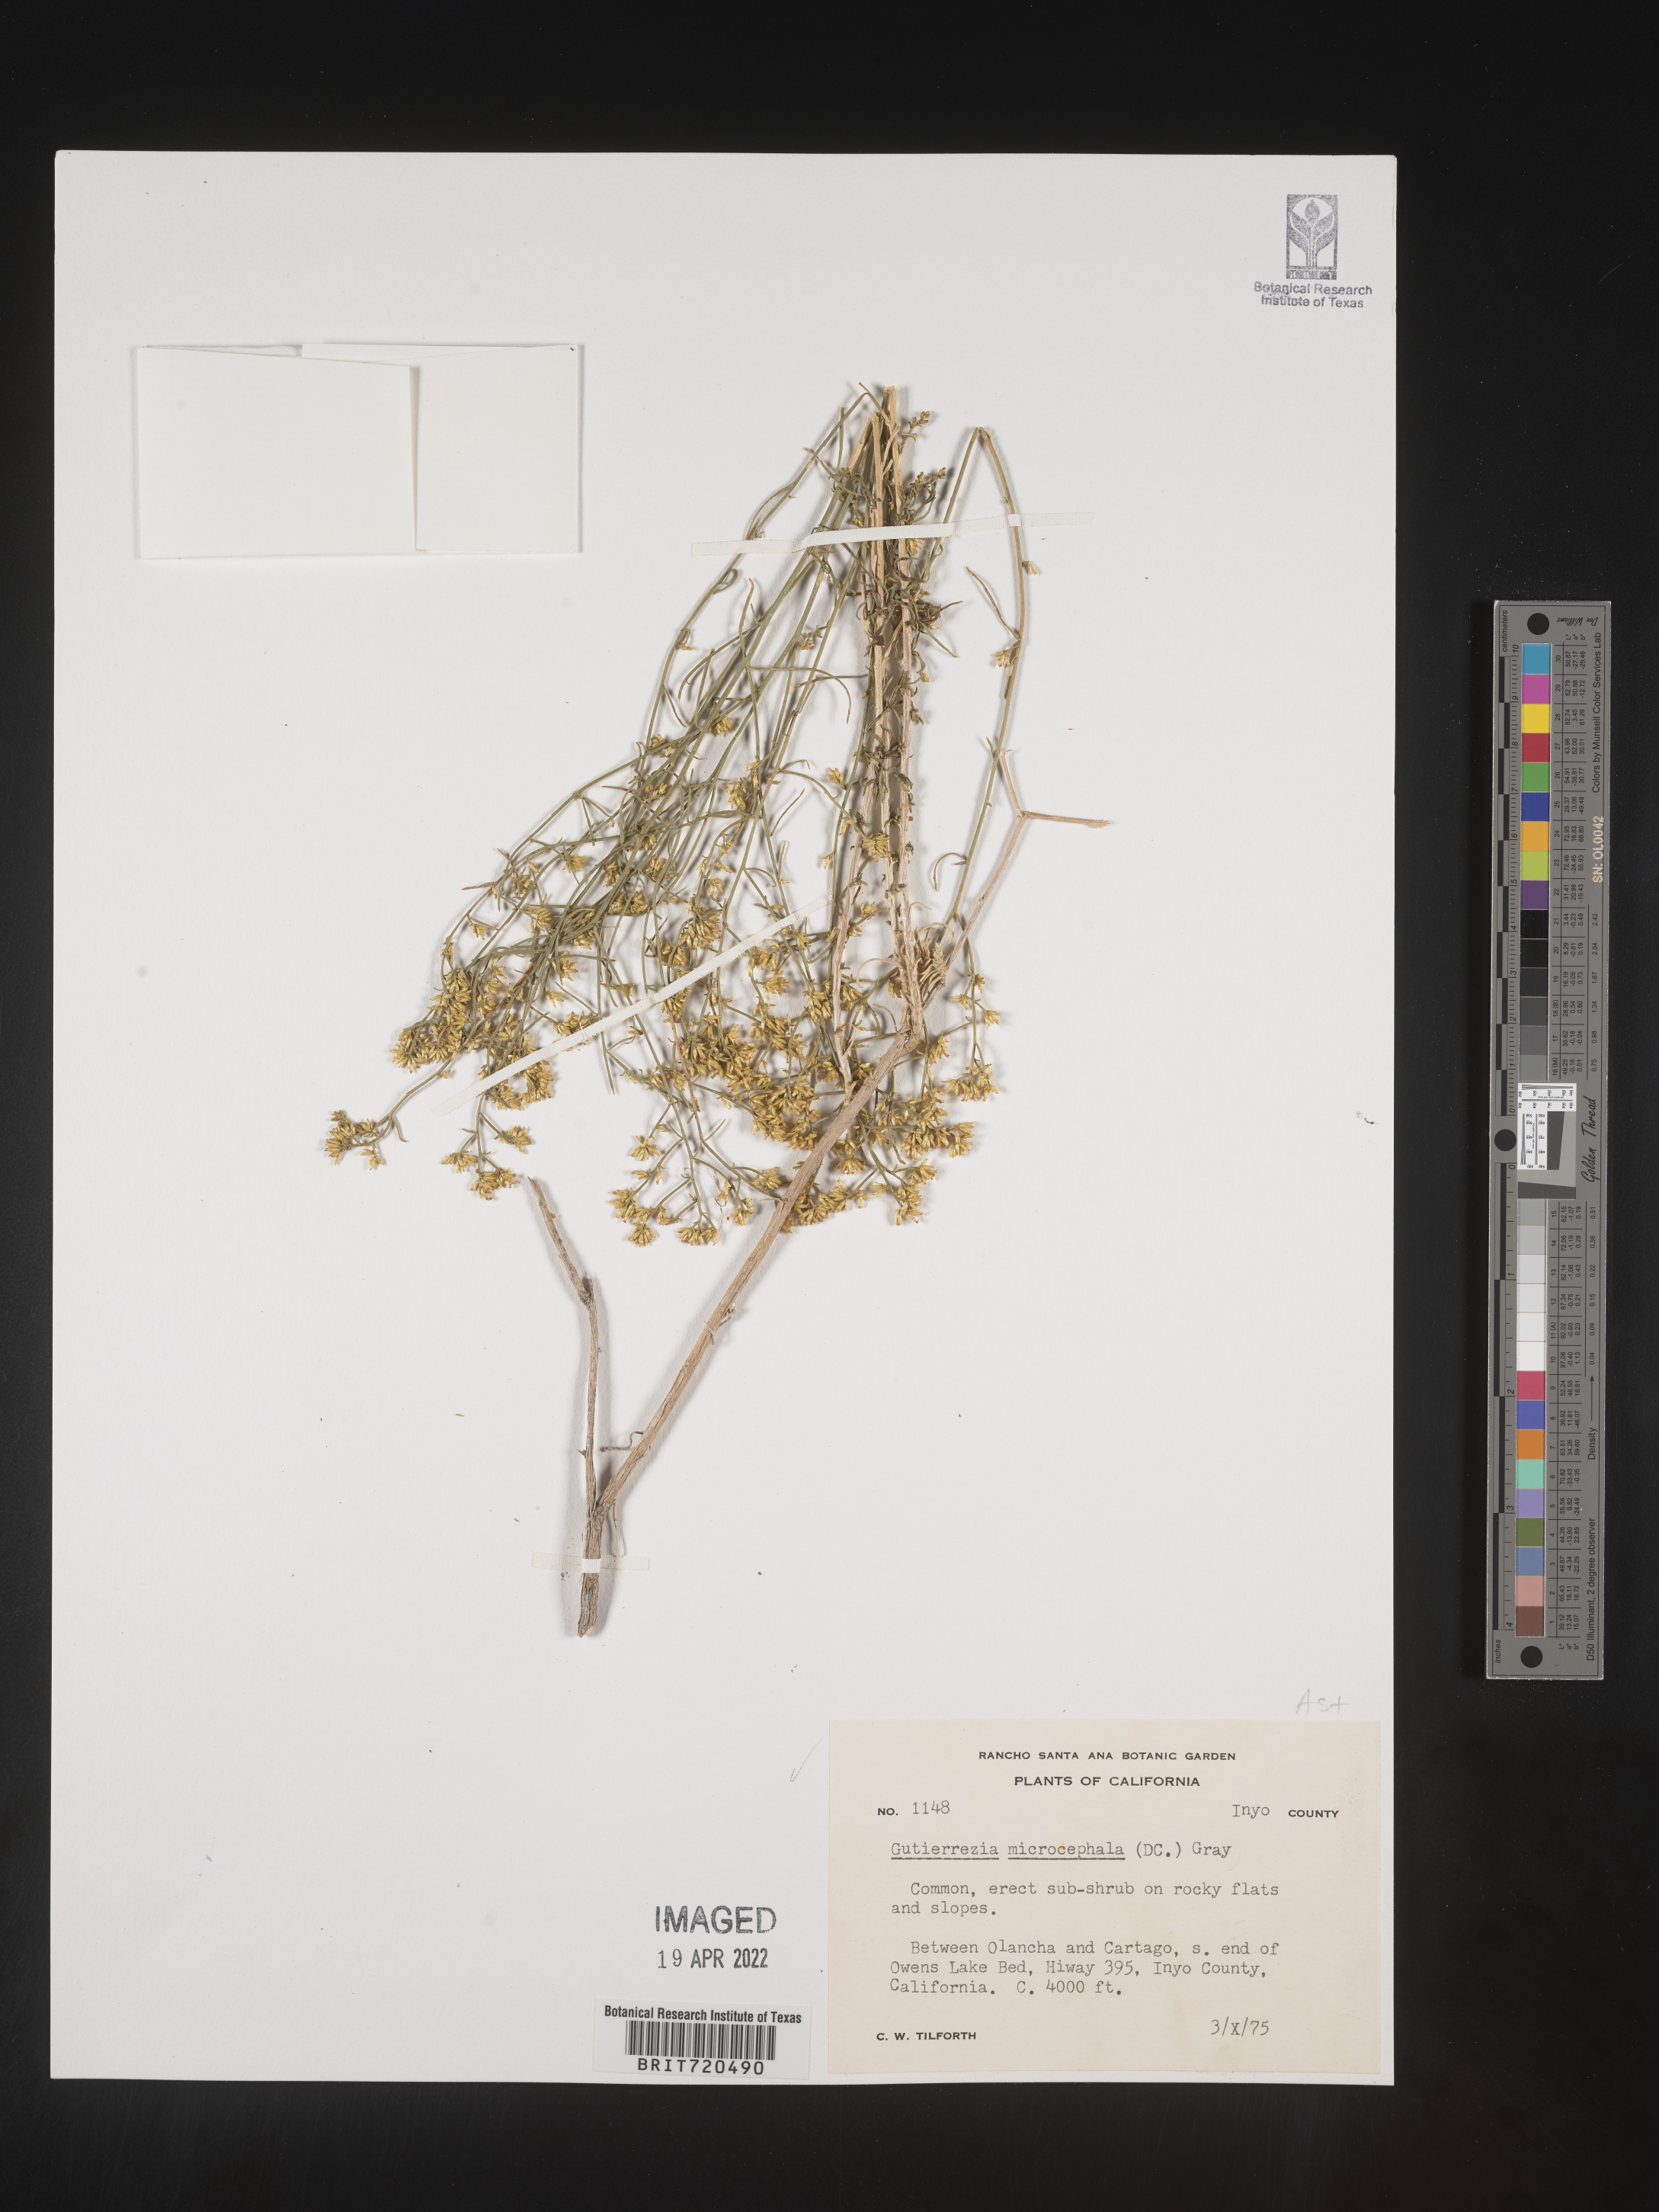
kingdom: Plantae
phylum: Tracheophyta
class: Magnoliopsida
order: Asterales
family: Asteraceae
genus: Gutierrezia
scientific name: Gutierrezia microcephala
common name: Thread snakeweed
